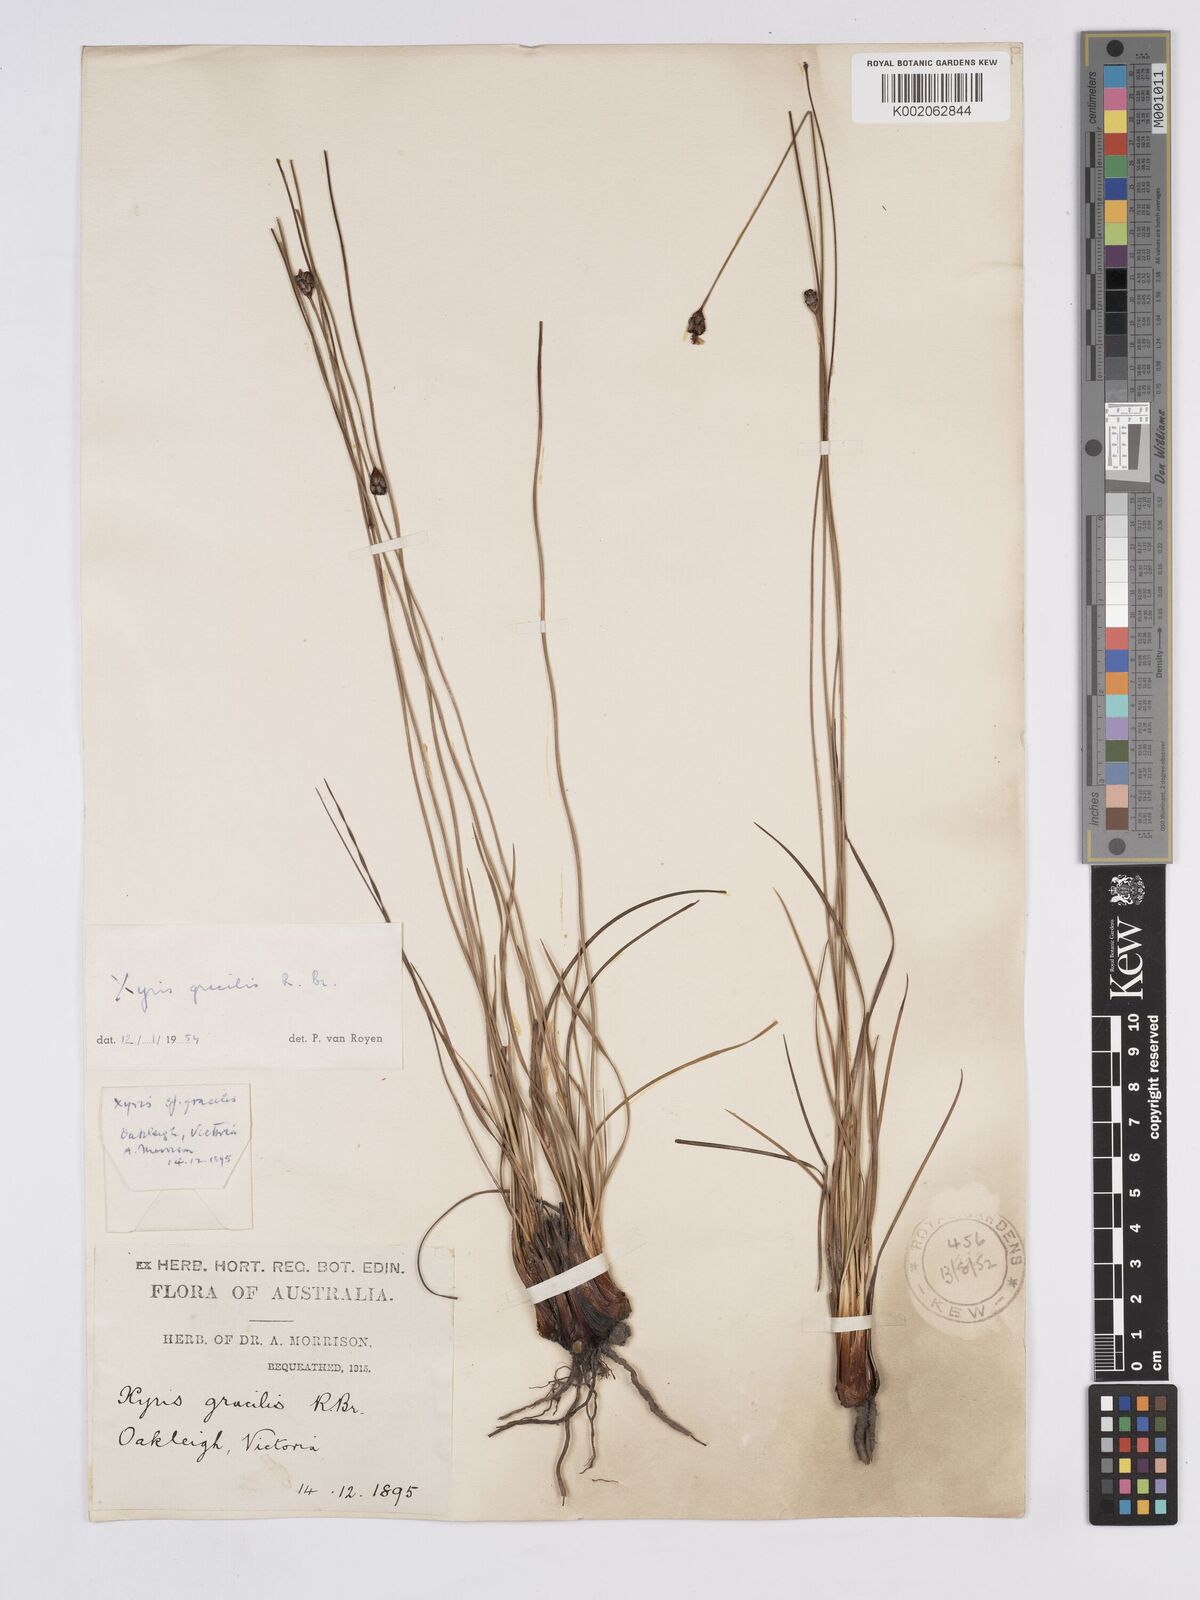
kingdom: Plantae
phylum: Tracheophyta
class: Liliopsida
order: Poales
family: Xyridaceae
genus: Xyris
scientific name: Xyris gracilis
